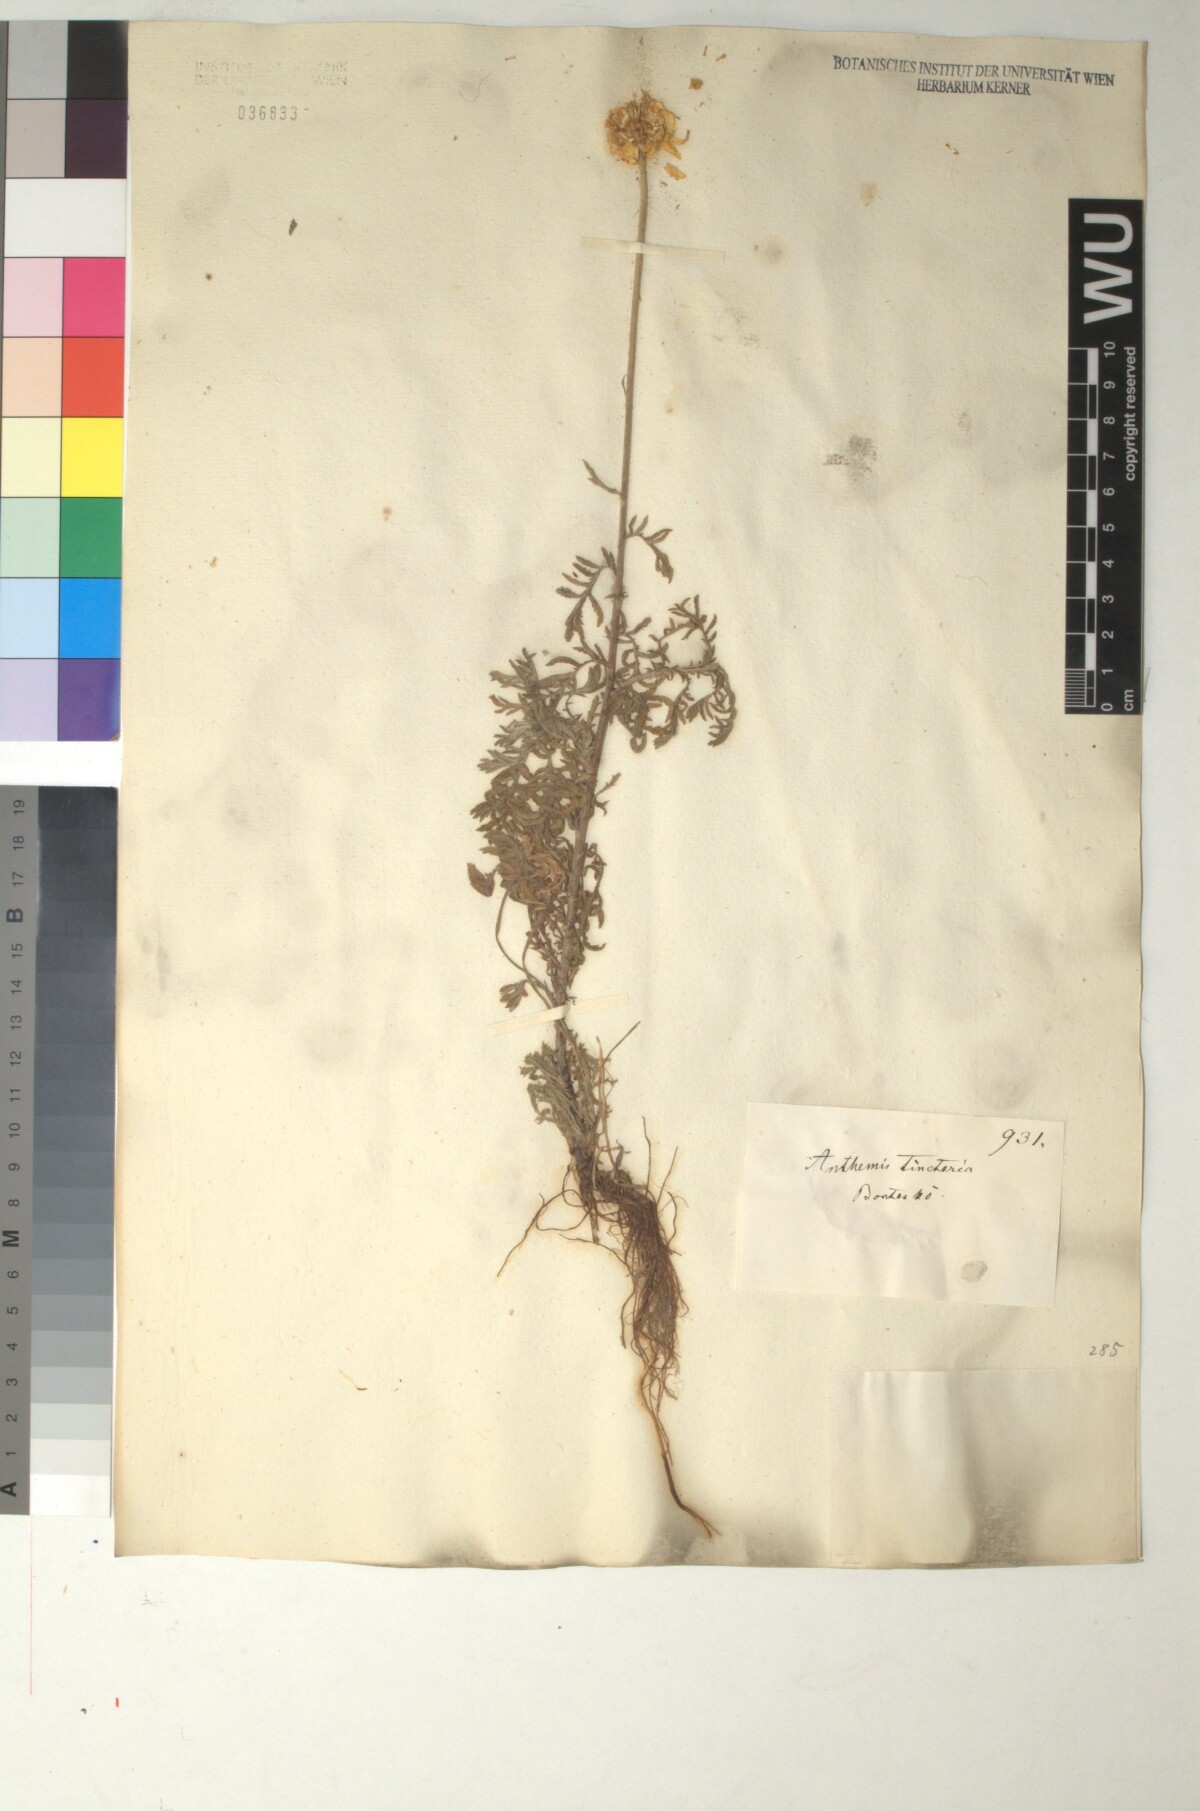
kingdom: Plantae
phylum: Tracheophyta
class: Magnoliopsida
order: Asterales
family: Asteraceae
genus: Cota
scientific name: Cota tinctoria
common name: Golden chamomile
